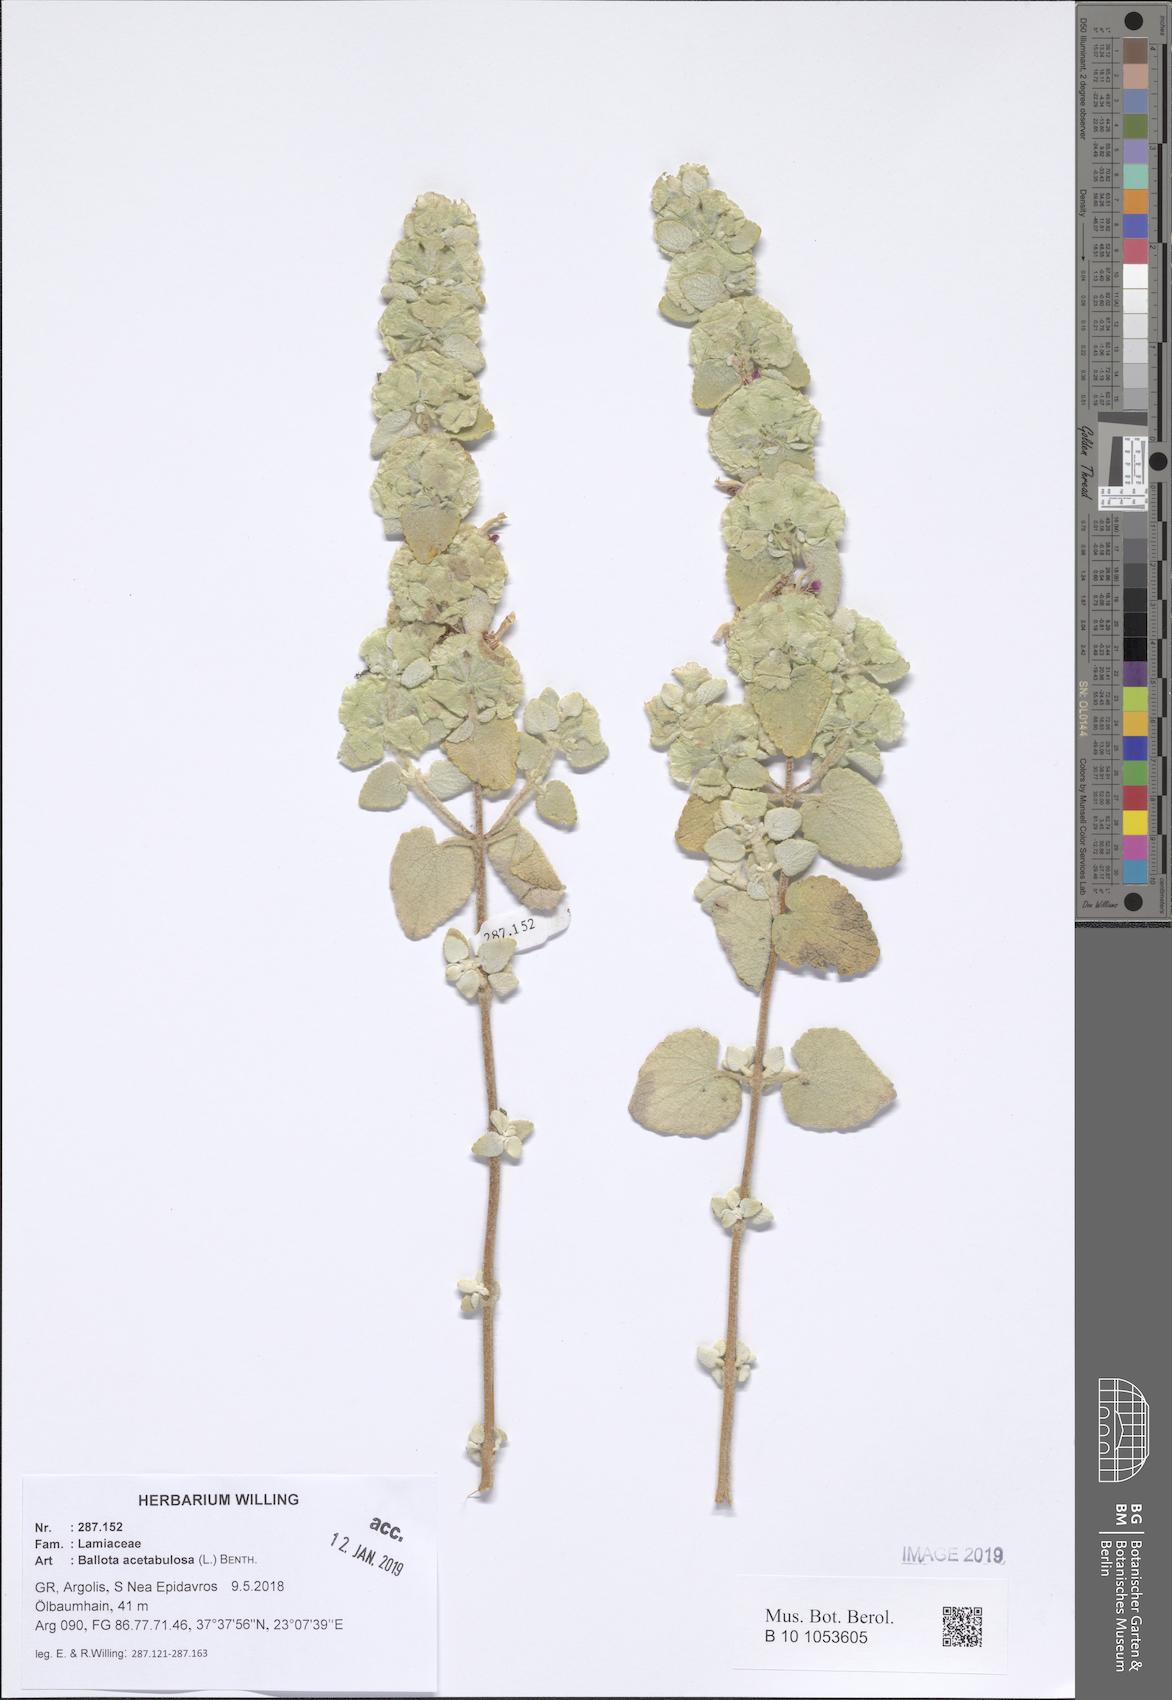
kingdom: Plantae
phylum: Tracheophyta
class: Magnoliopsida
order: Lamiales
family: Lamiaceae
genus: Pseudodictamnus
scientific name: Pseudodictamnus acetabulosus
